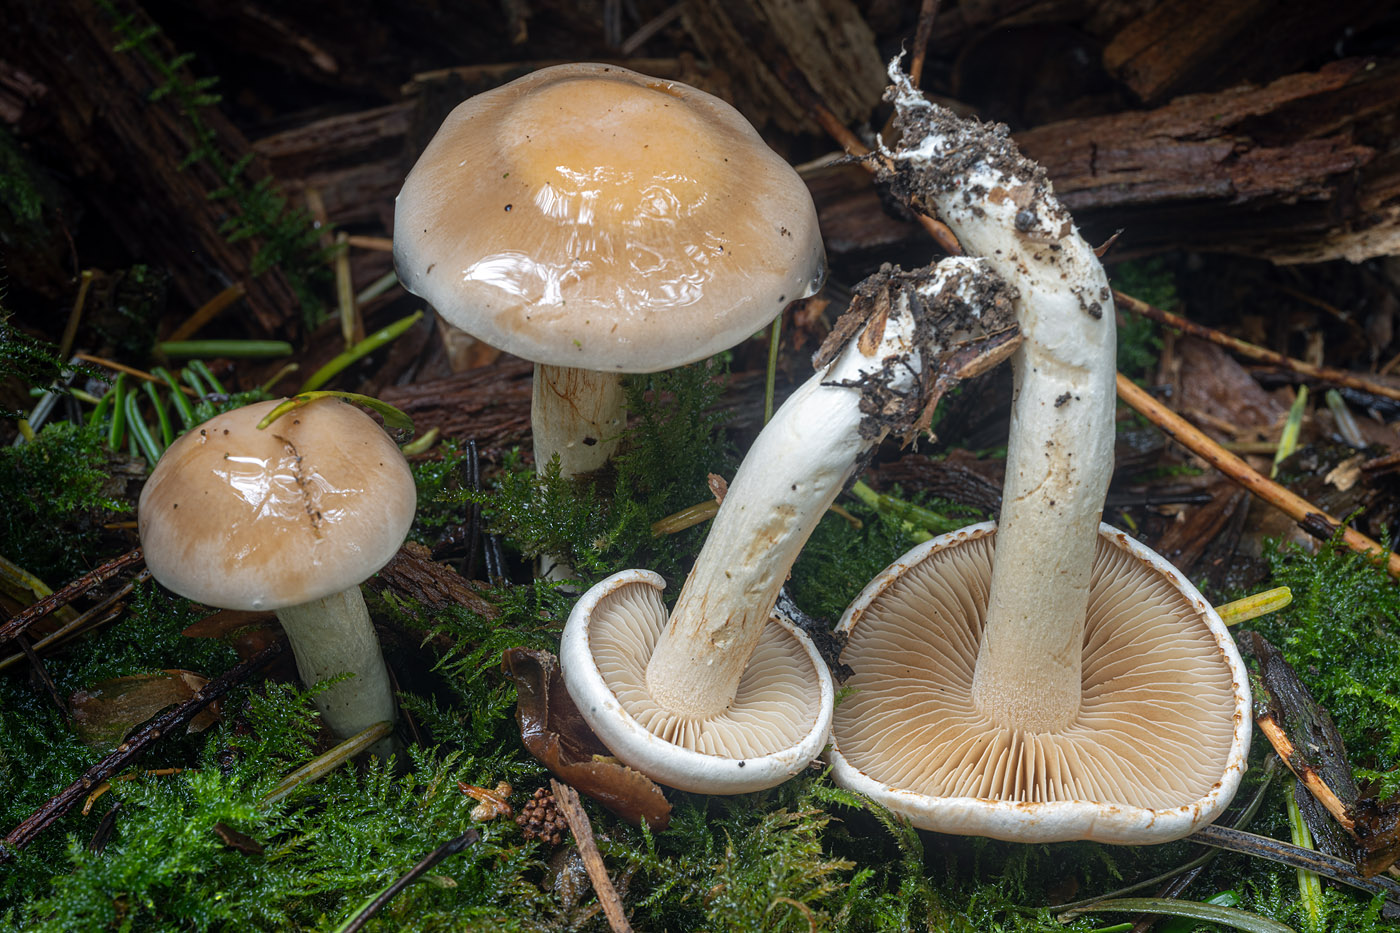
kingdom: Fungi
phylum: Basidiomycota
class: Agaricomycetes
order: Agaricales
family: Cortinariaceae
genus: Thaxterogaster
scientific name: Thaxterogaster leucoluteolus
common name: isabella slørhat
